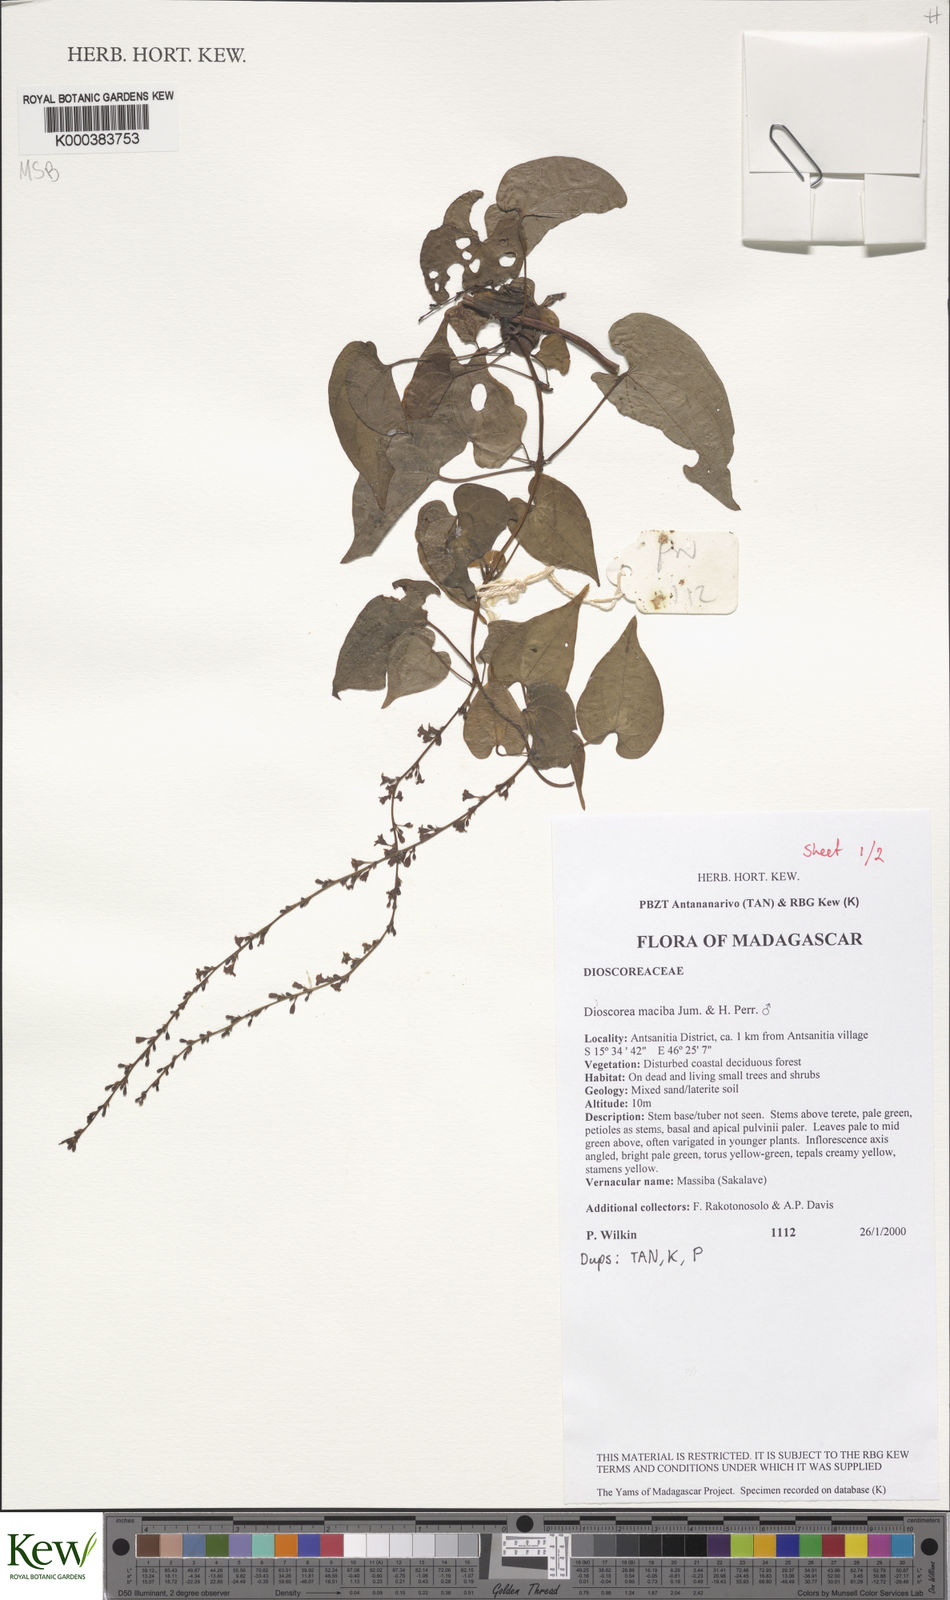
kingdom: Plantae
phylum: Tracheophyta
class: Liliopsida
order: Dioscoreales
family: Dioscoreaceae
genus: Dioscorea
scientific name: Dioscorea
